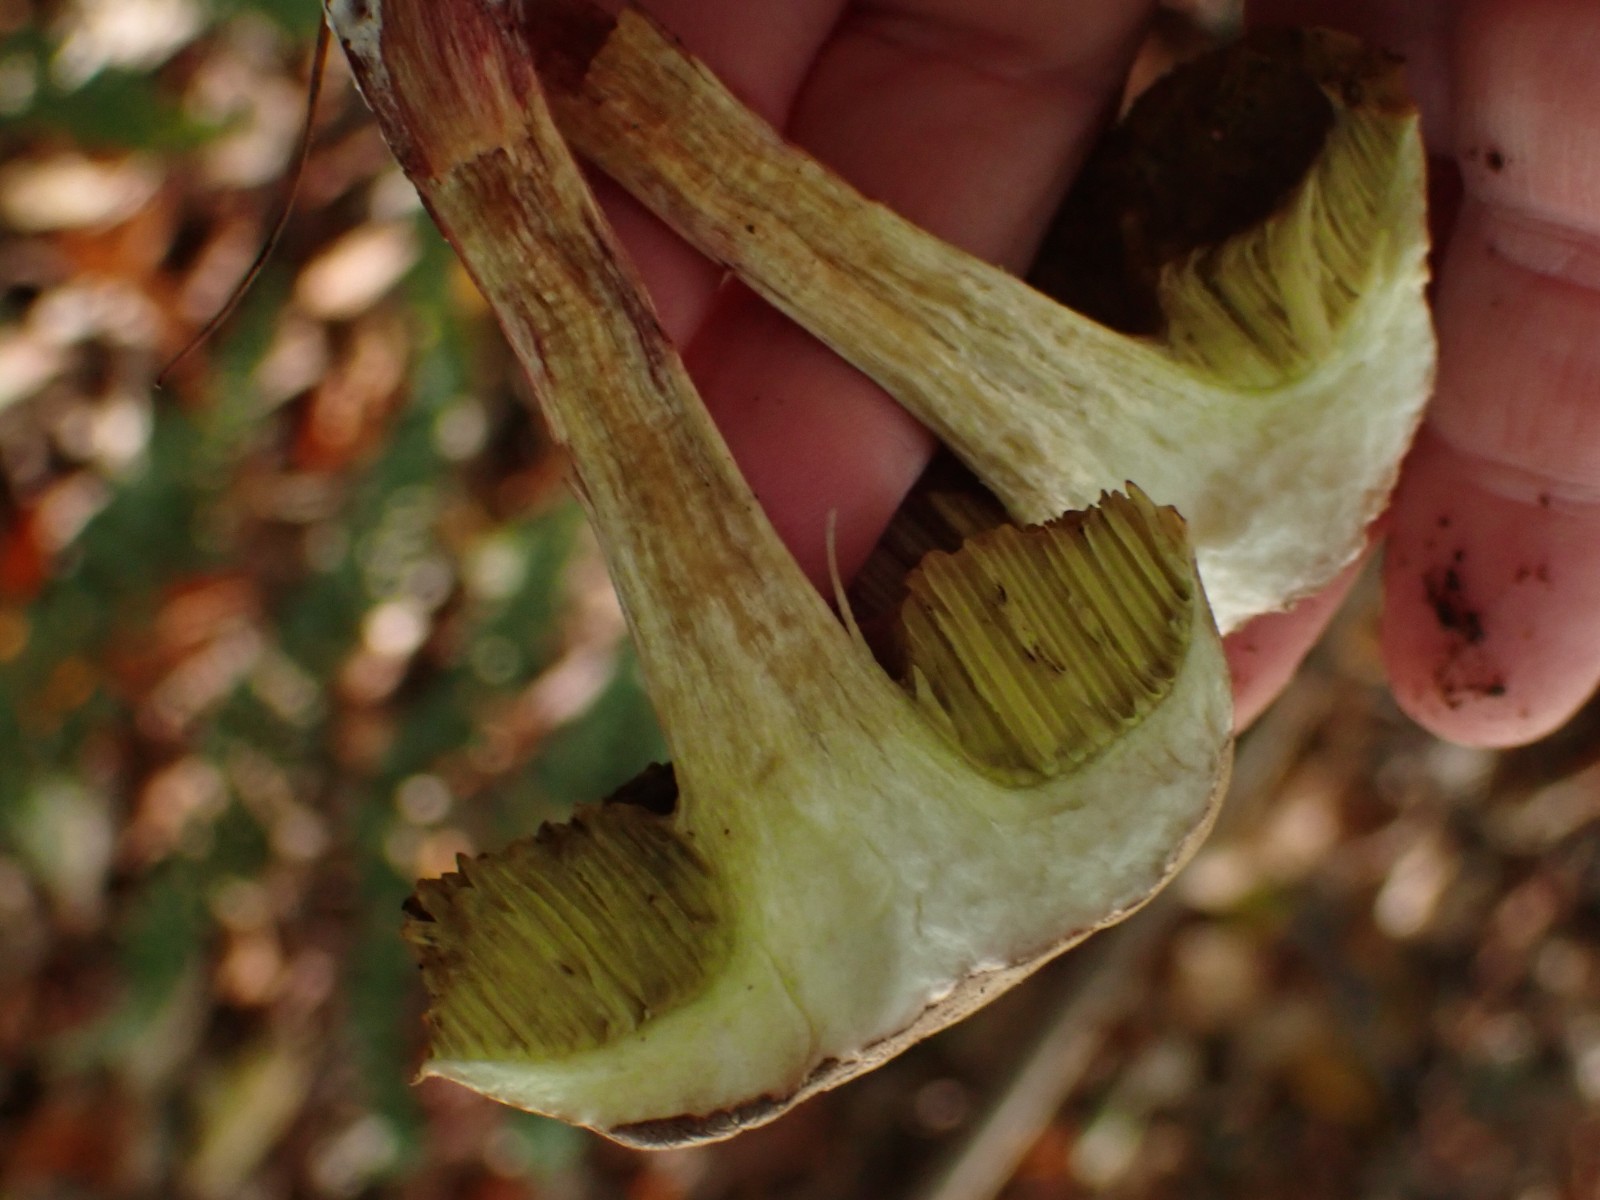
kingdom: Fungi
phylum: Basidiomycota
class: Agaricomycetes
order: Boletales
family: Boletaceae
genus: Xerocomellus
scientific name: Xerocomellus
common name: dværgrørhat
